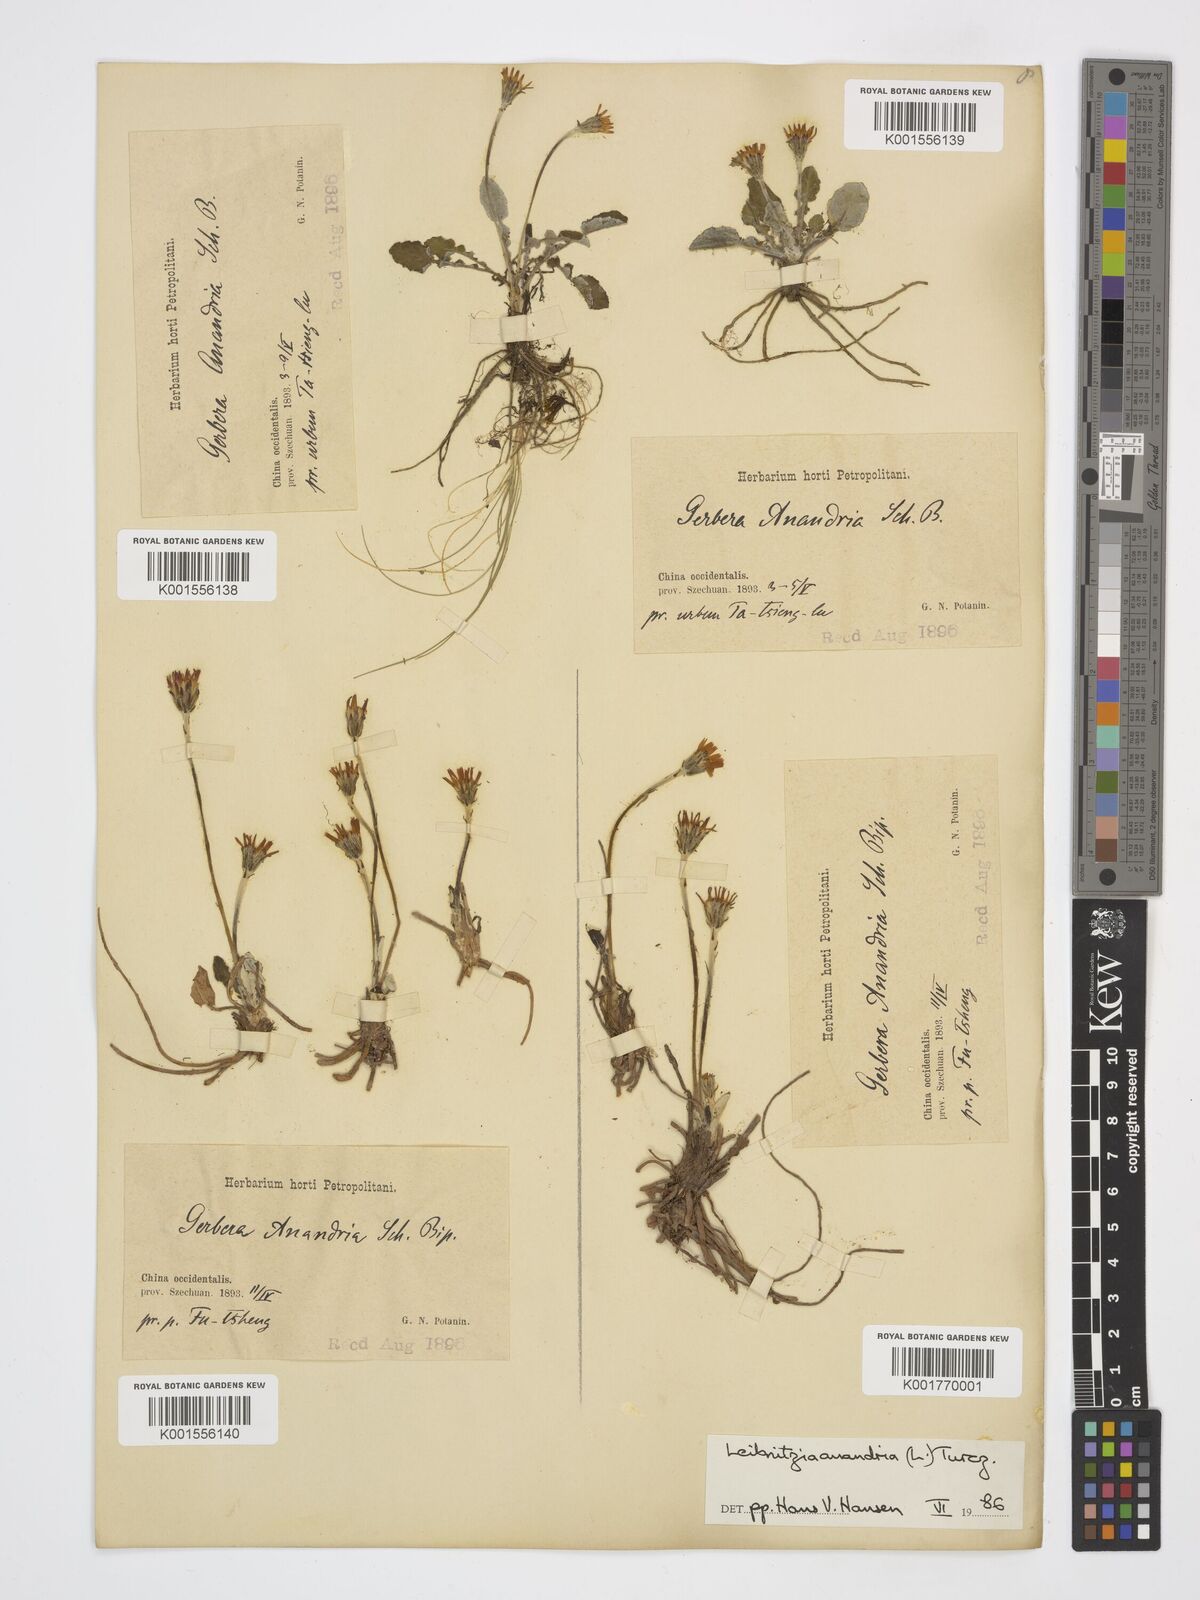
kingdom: Plantae
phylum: Tracheophyta
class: Magnoliopsida
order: Asterales
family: Asteraceae
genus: Leibnitzia
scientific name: Leibnitzia anandria
